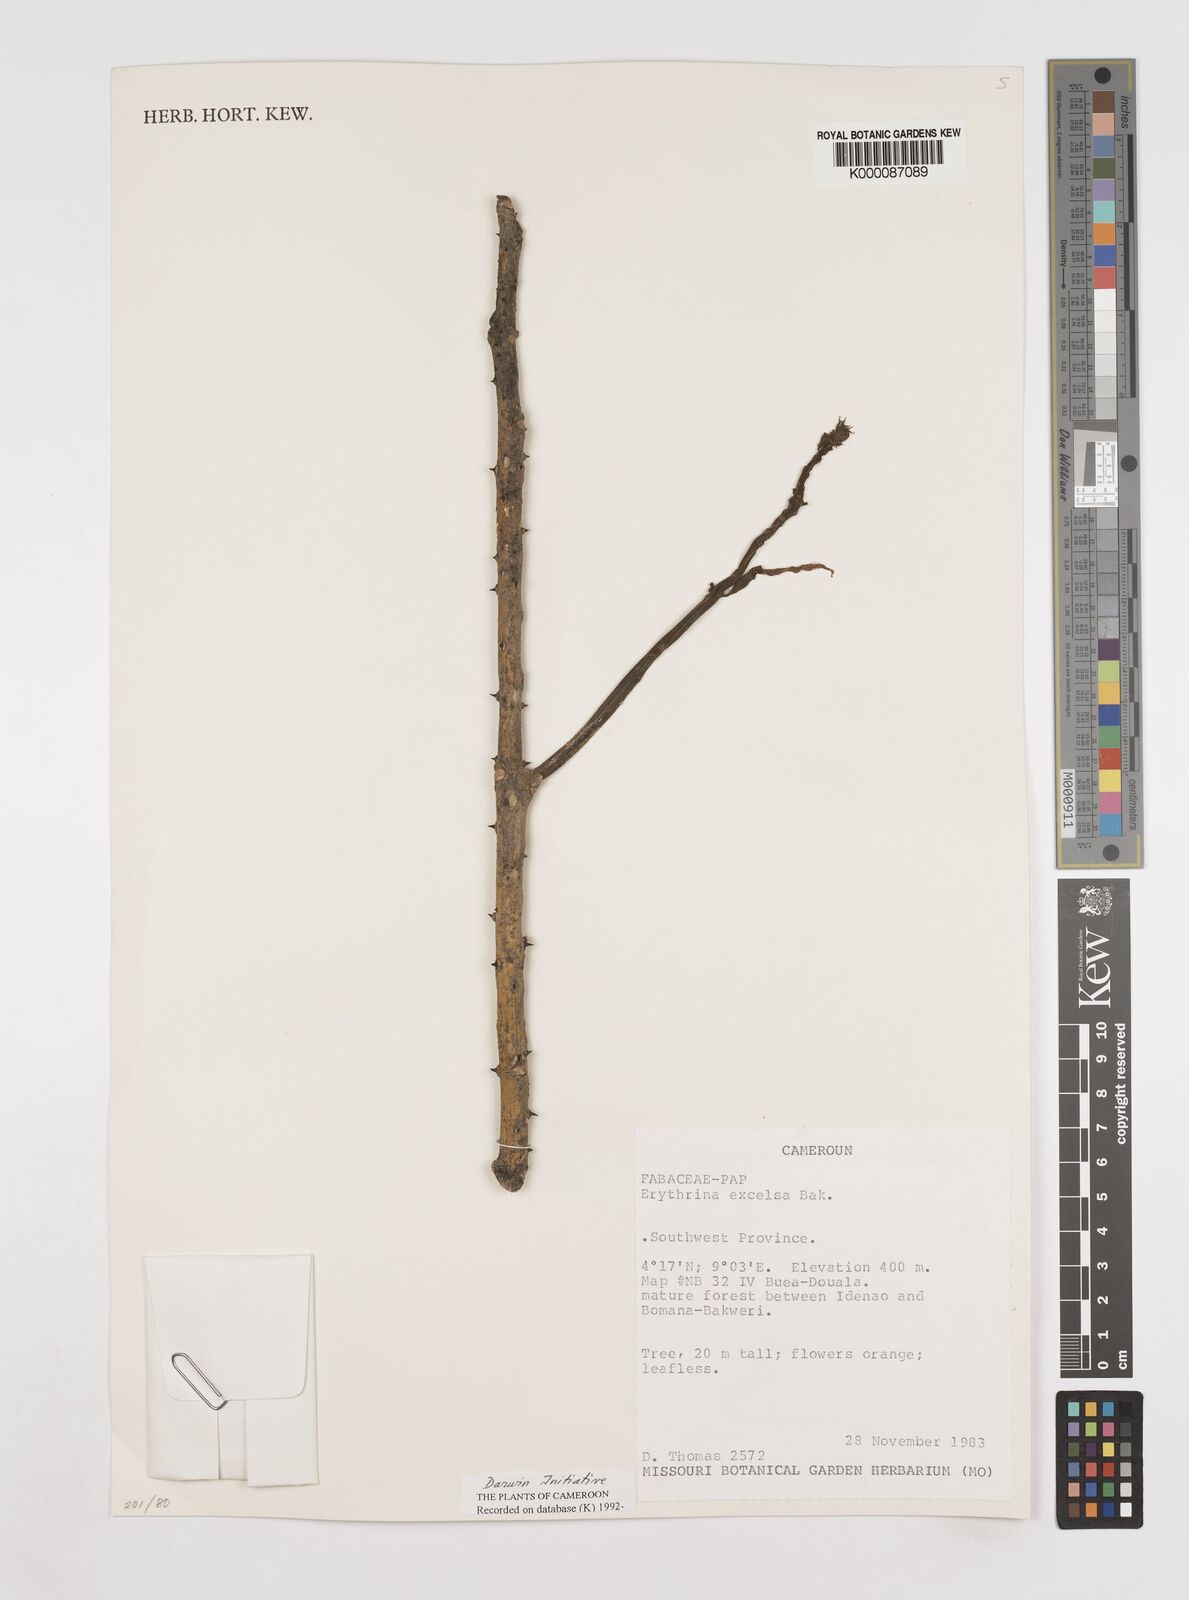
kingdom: Plantae
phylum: Tracheophyta
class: Magnoliopsida
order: Fabales
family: Fabaceae
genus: Erythrina
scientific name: Erythrina excelsa
